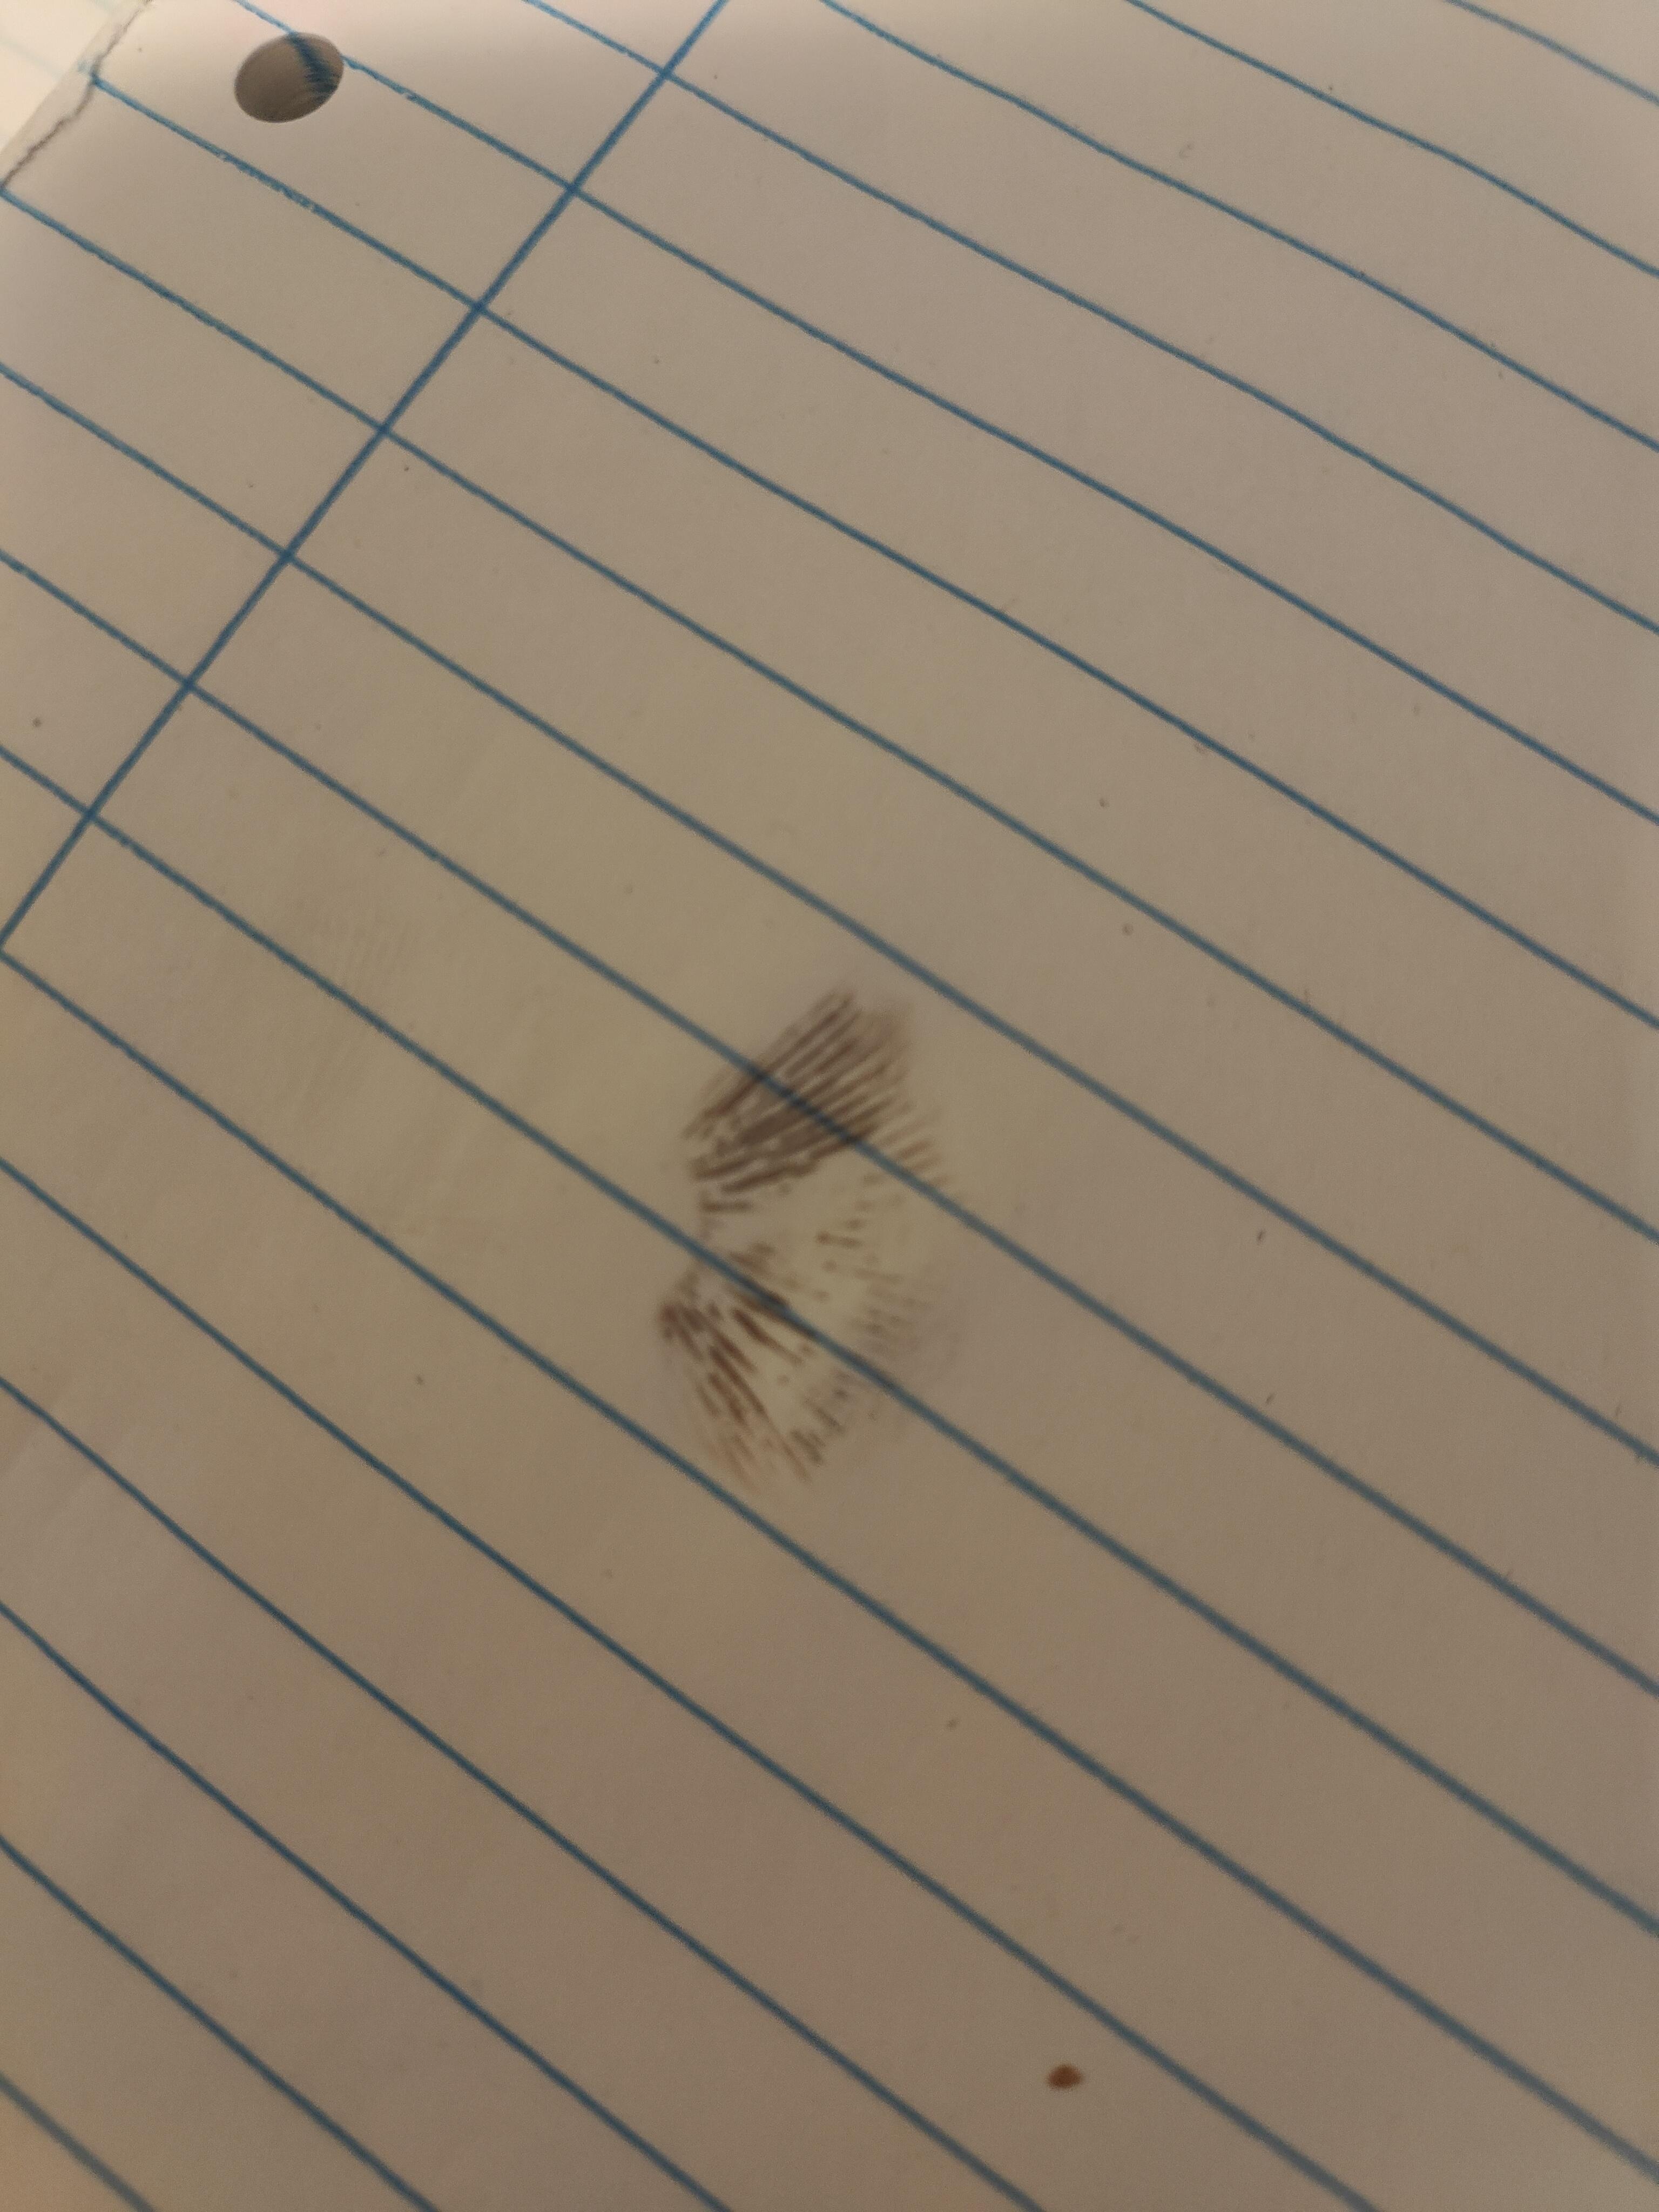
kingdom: Fungi
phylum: Basidiomycota
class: Agaricomycetes
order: Agaricales
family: Strophariaceae
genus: Agrocybe
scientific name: Agrocybe
